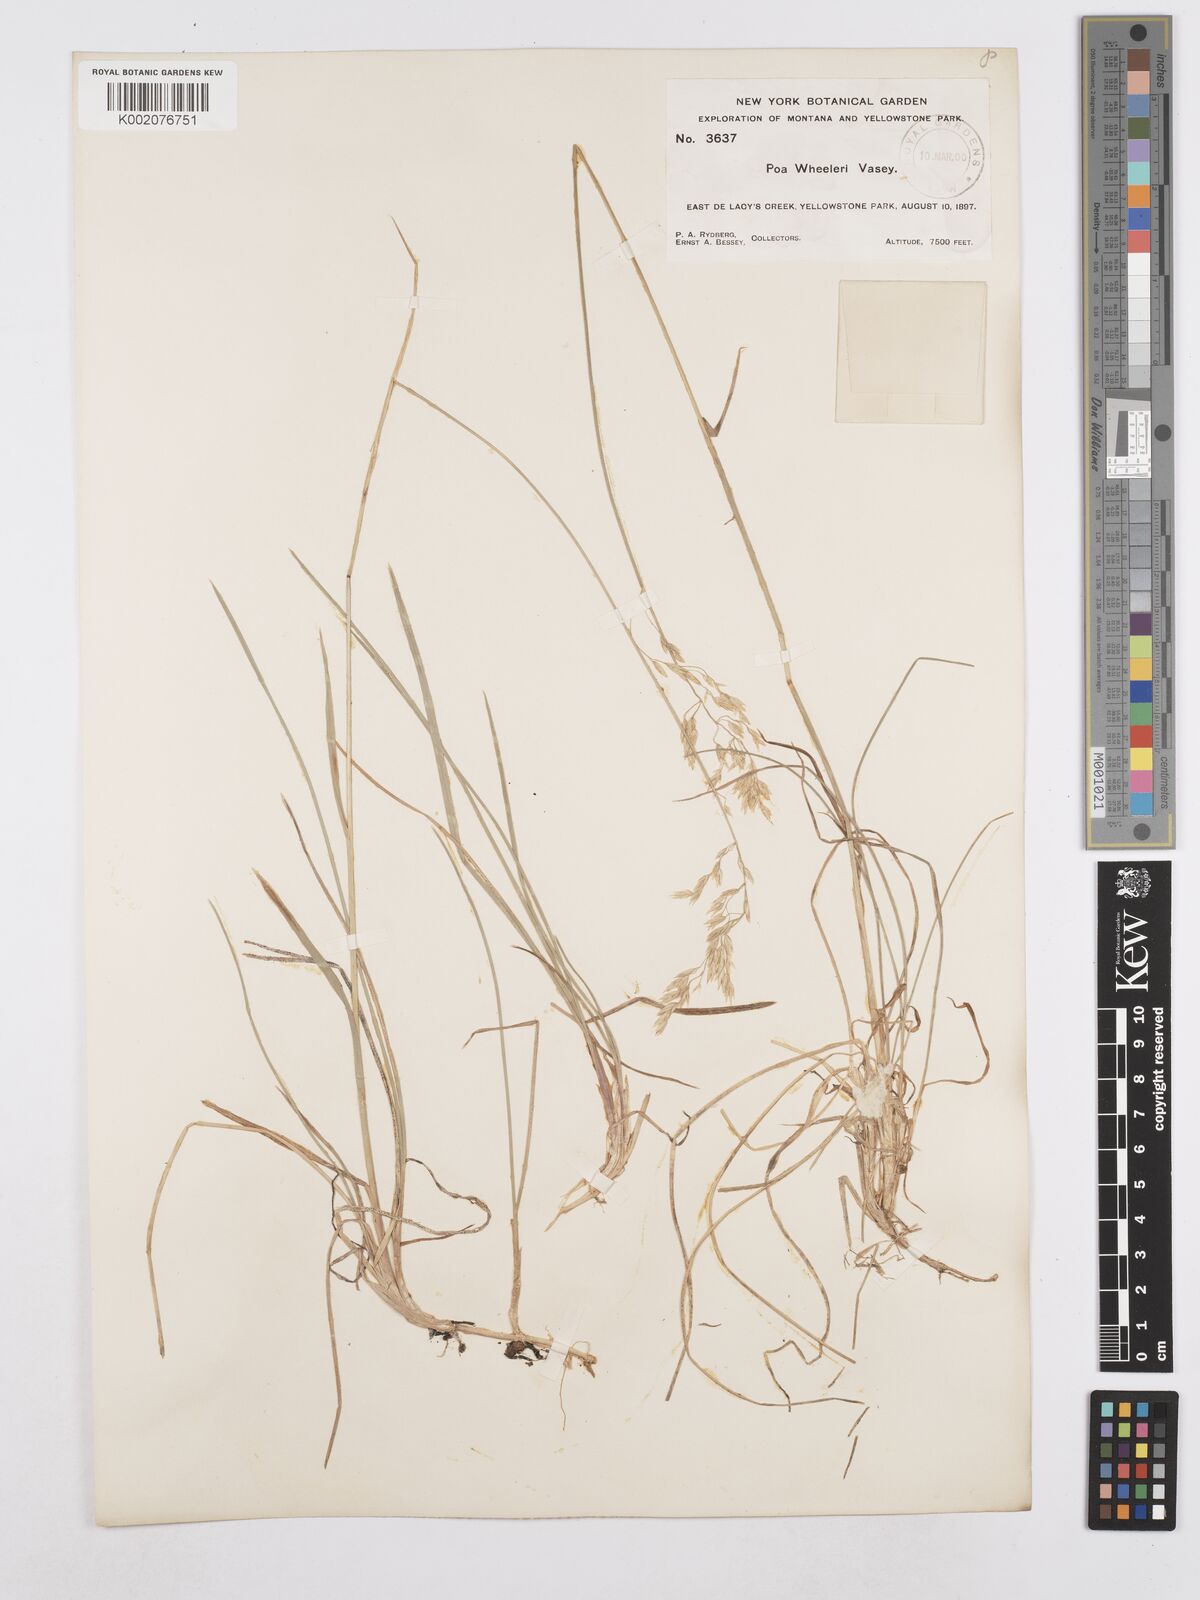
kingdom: Plantae
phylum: Tracheophyta
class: Liliopsida
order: Poales
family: Poaceae
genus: Poa
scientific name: Poa wheeleri
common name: Wheeler's bluegrass
